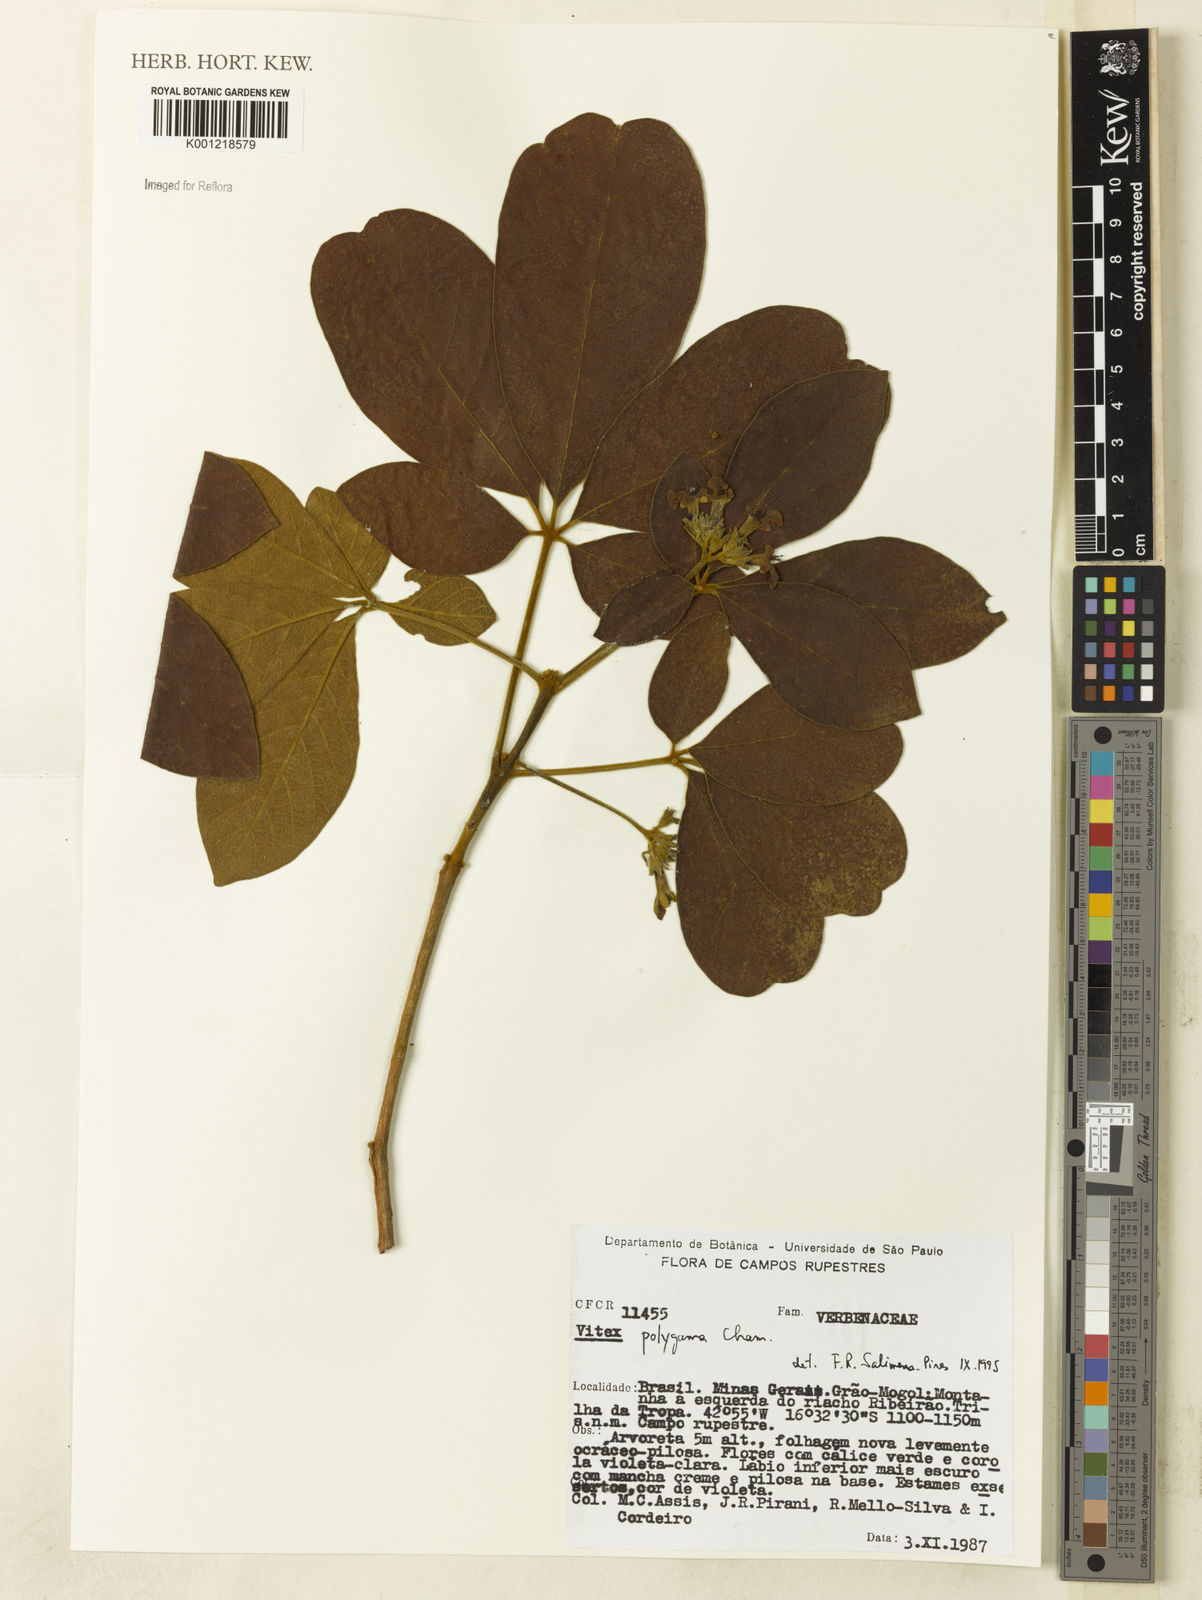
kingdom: Plantae
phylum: Tracheophyta
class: Magnoliopsida
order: Lamiales
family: Lamiaceae
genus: Vitex
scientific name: Vitex polygama
